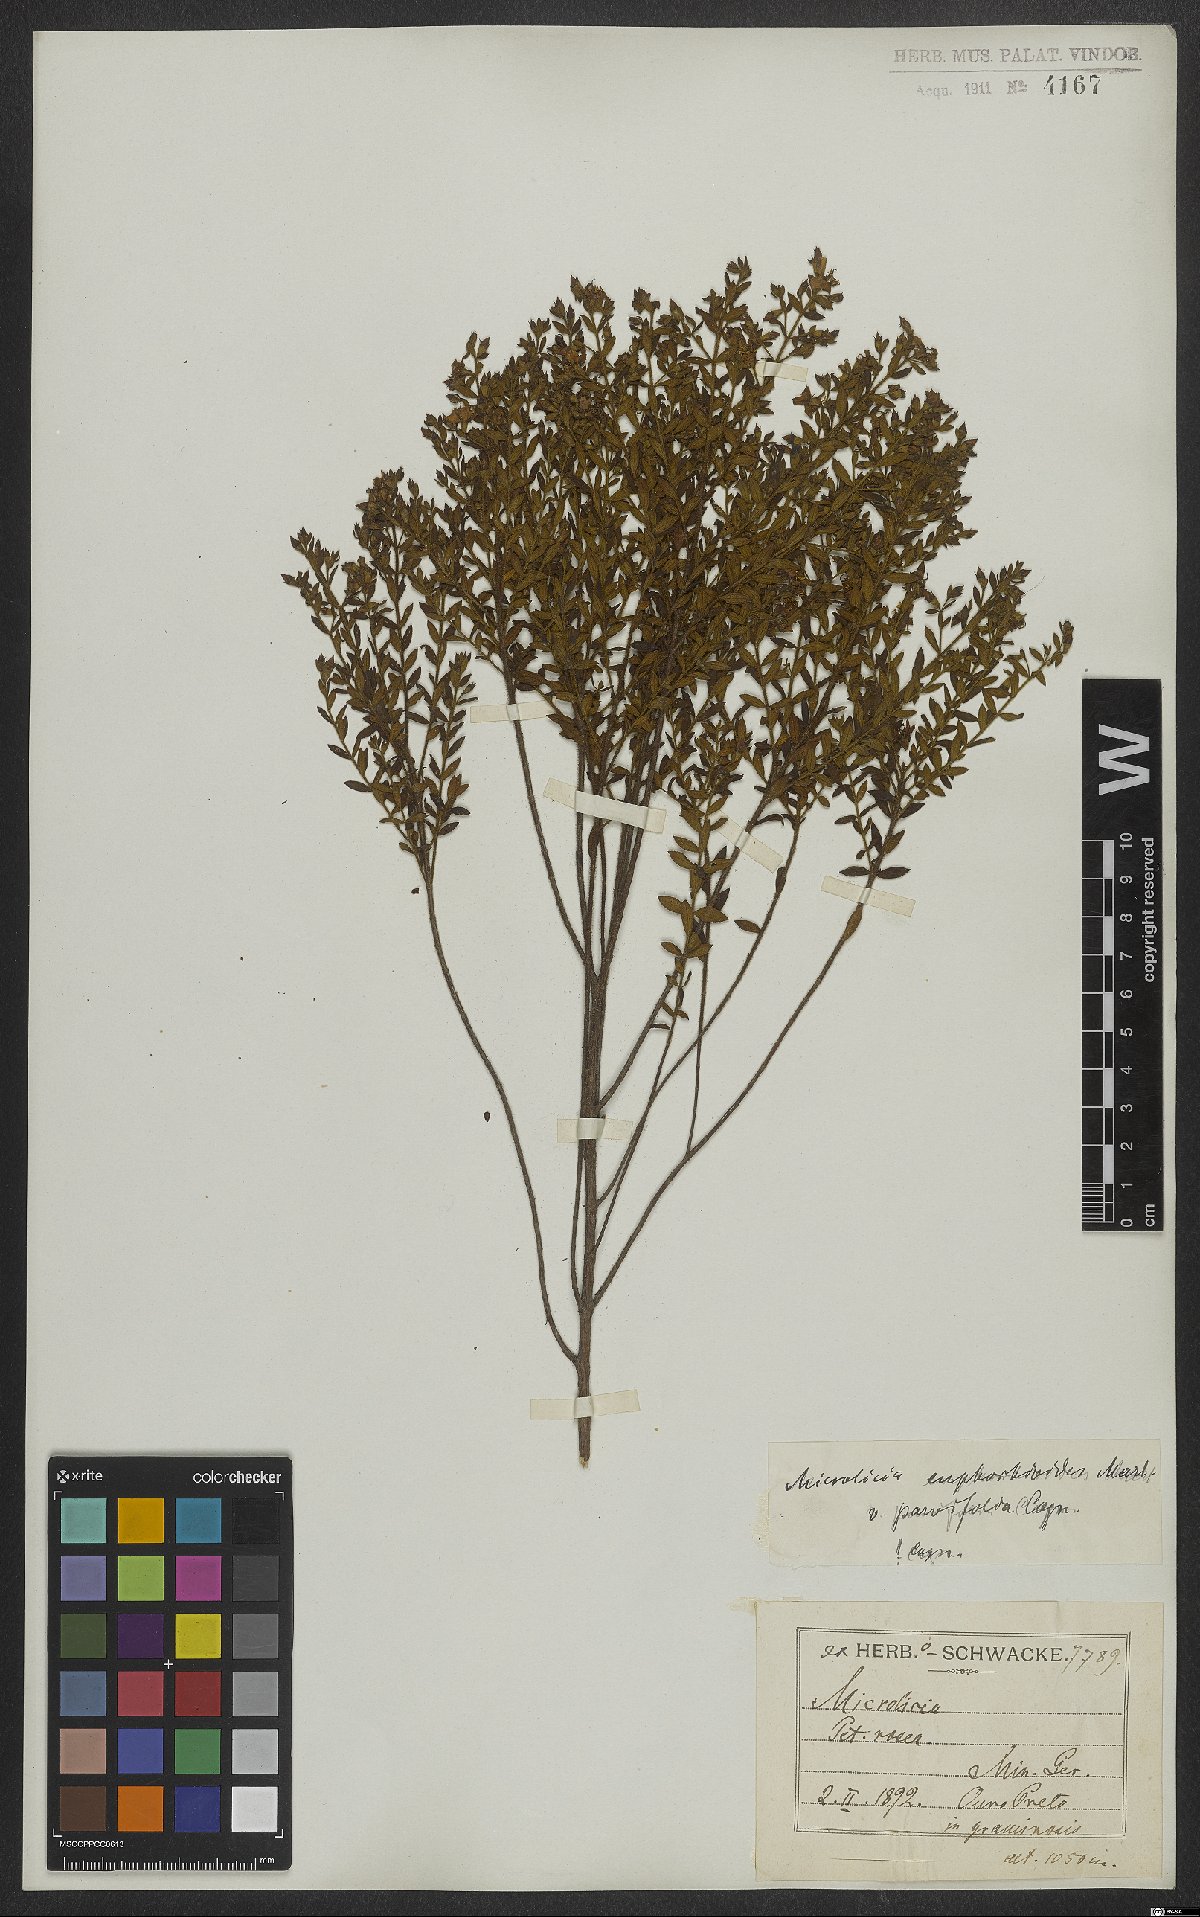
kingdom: Plantae
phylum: Tracheophyta
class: Magnoliopsida
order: Myrtales
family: Melastomataceae
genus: Microlicia
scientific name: Microlicia euphorbioides
